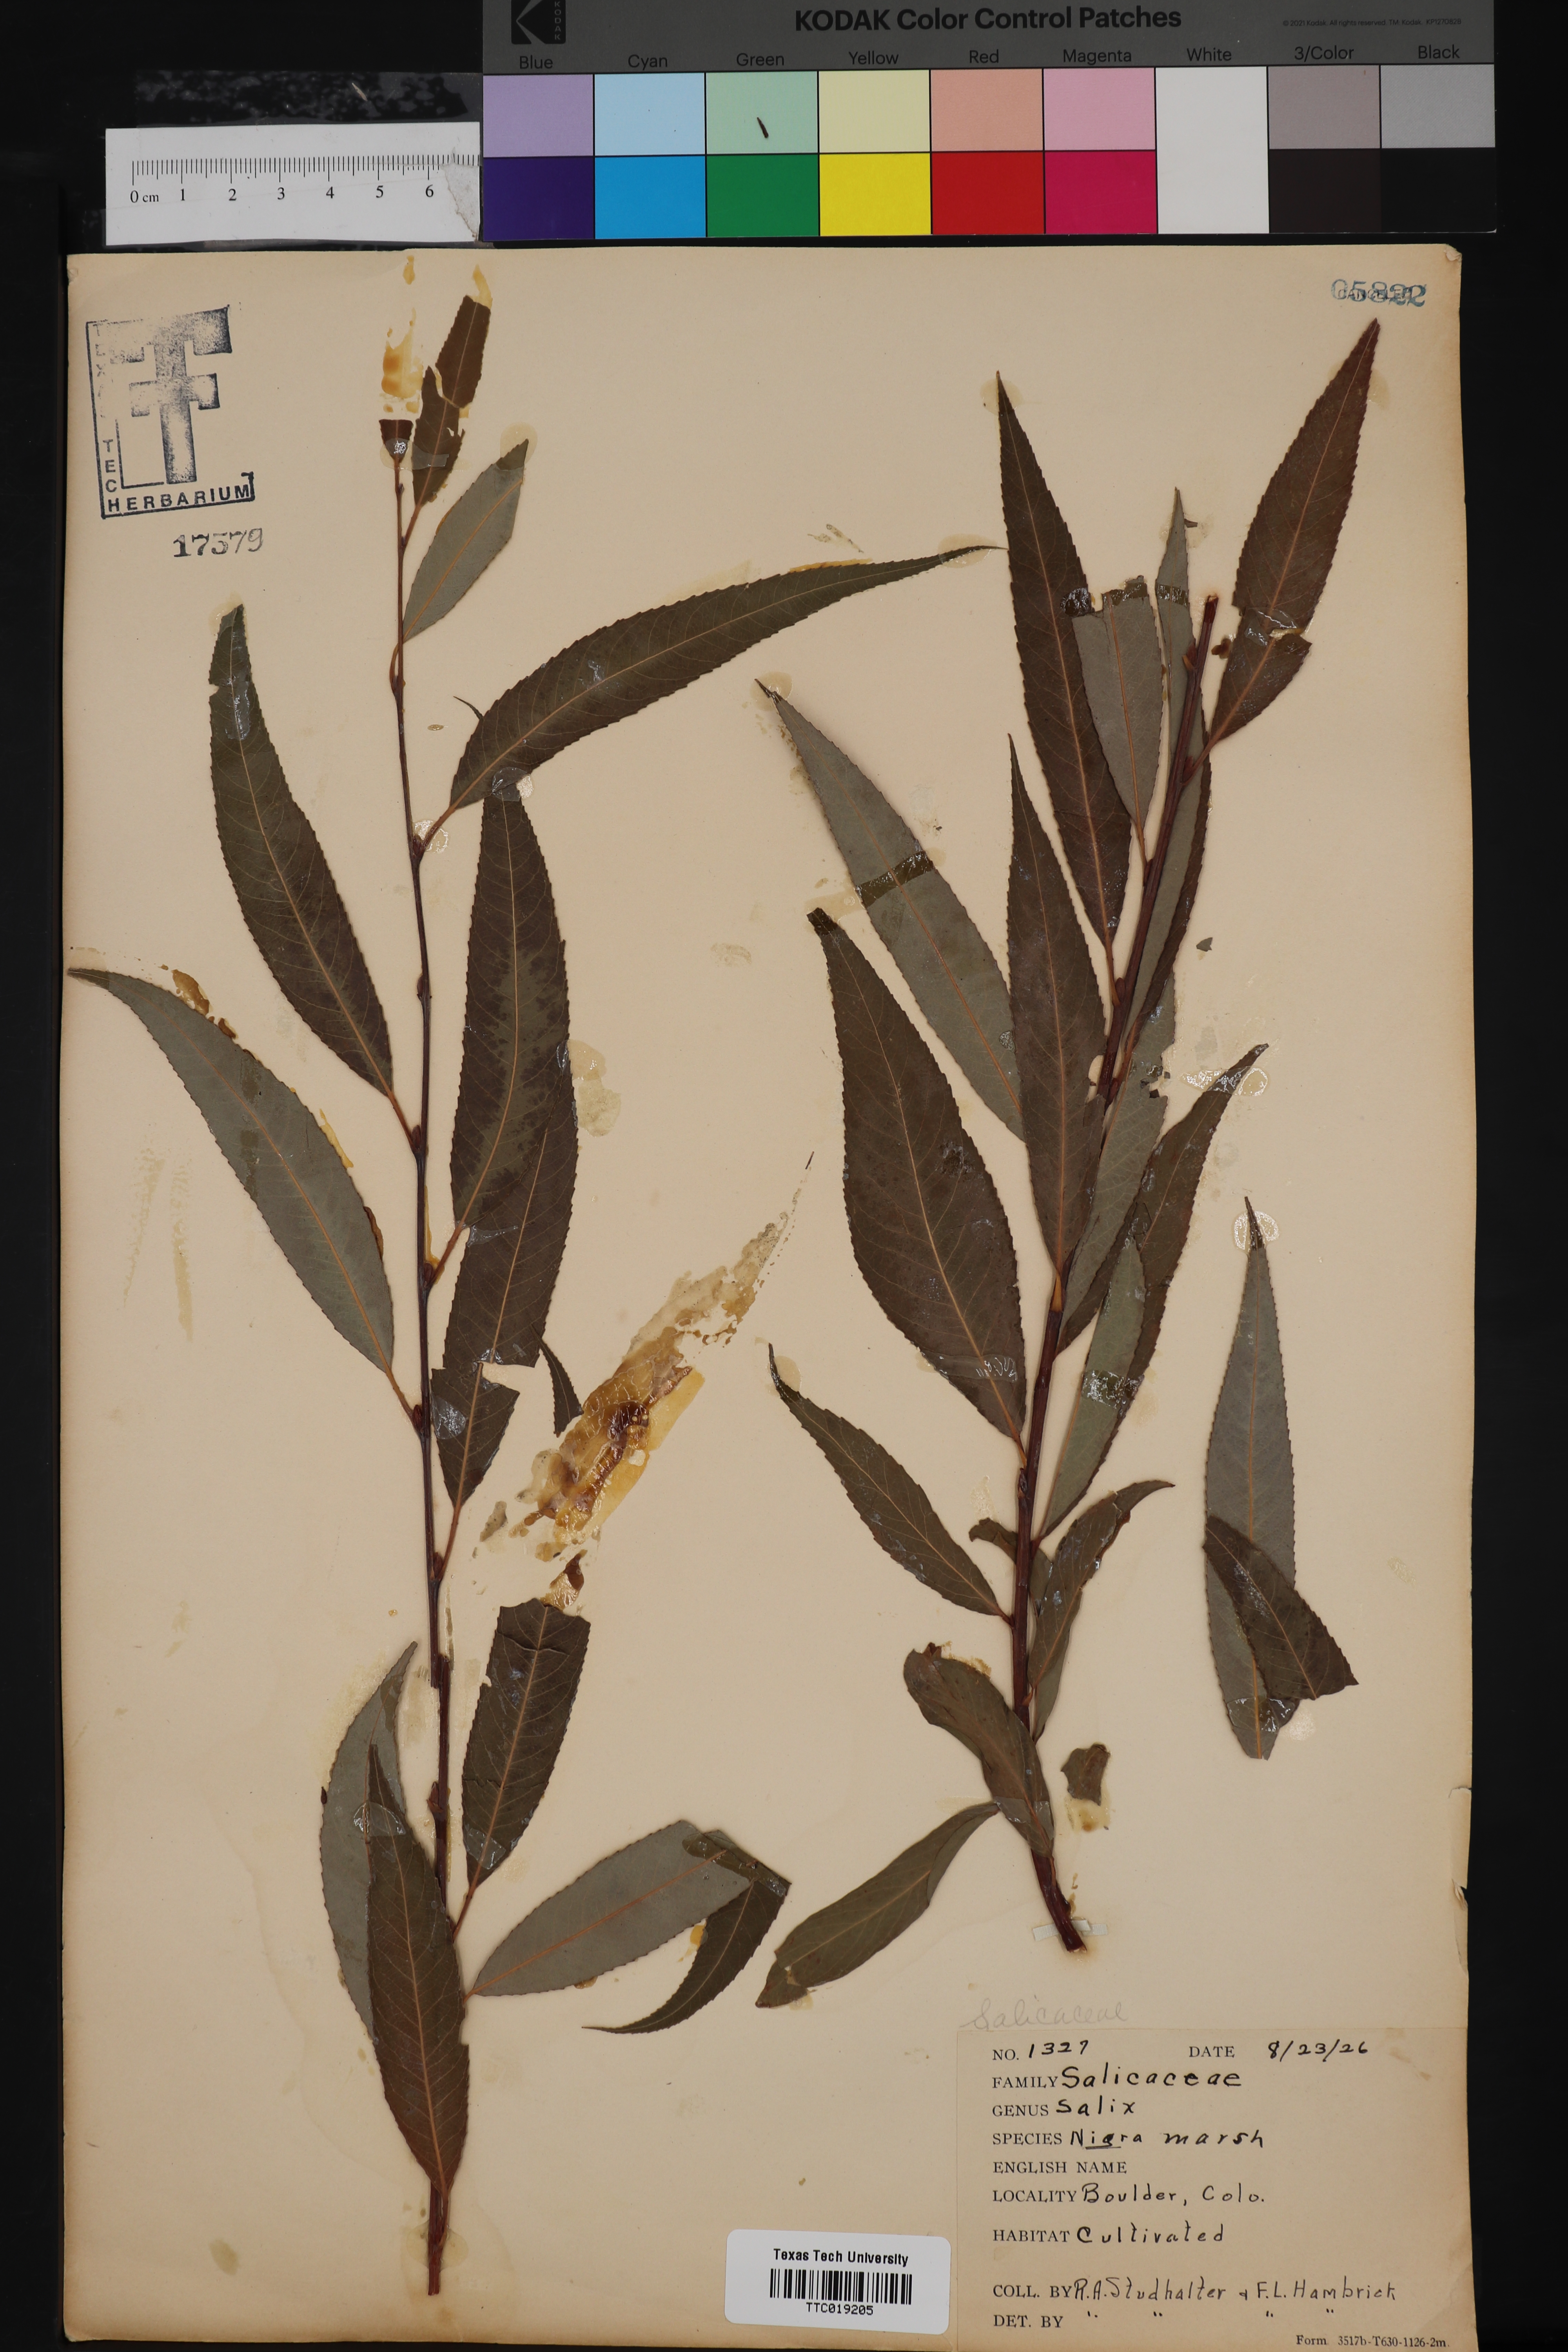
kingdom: Plantae
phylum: Tracheophyta
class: Magnoliopsida
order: Malpighiales
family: Salicaceae
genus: Salix
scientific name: Salix nigra
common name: Black willow
